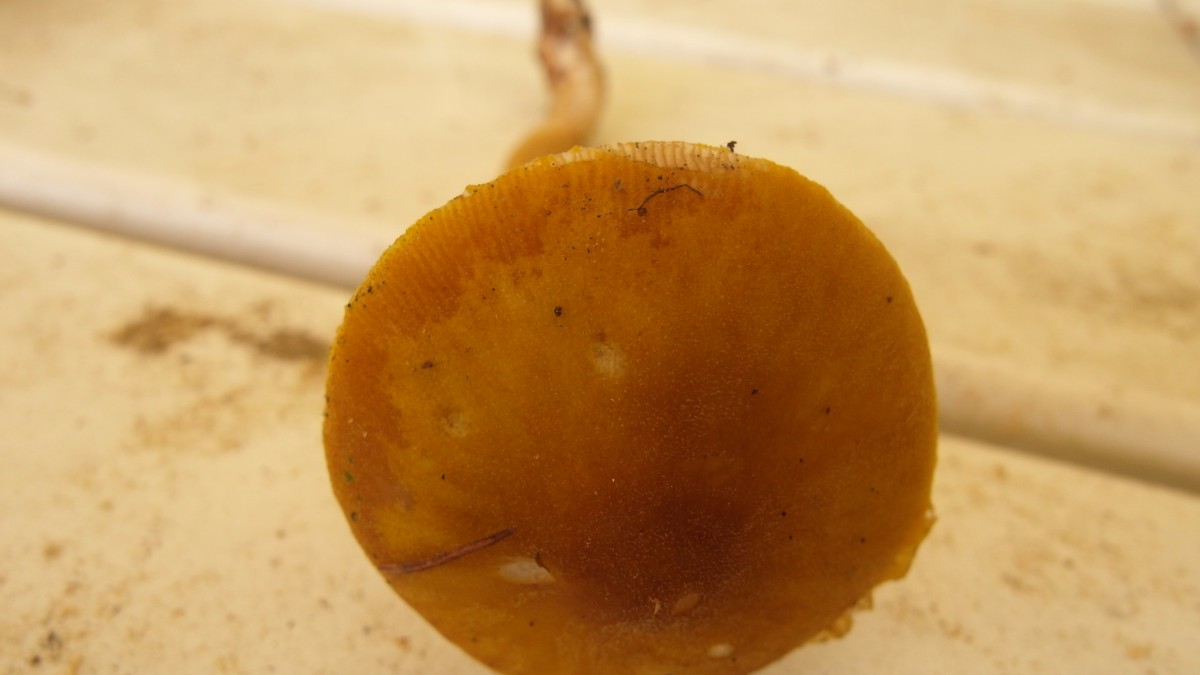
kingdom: Fungi
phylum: Basidiomycota
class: Agaricomycetes
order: Agaricales
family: Pluteaceae
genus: Pluteus
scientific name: Pluteus leoninus
